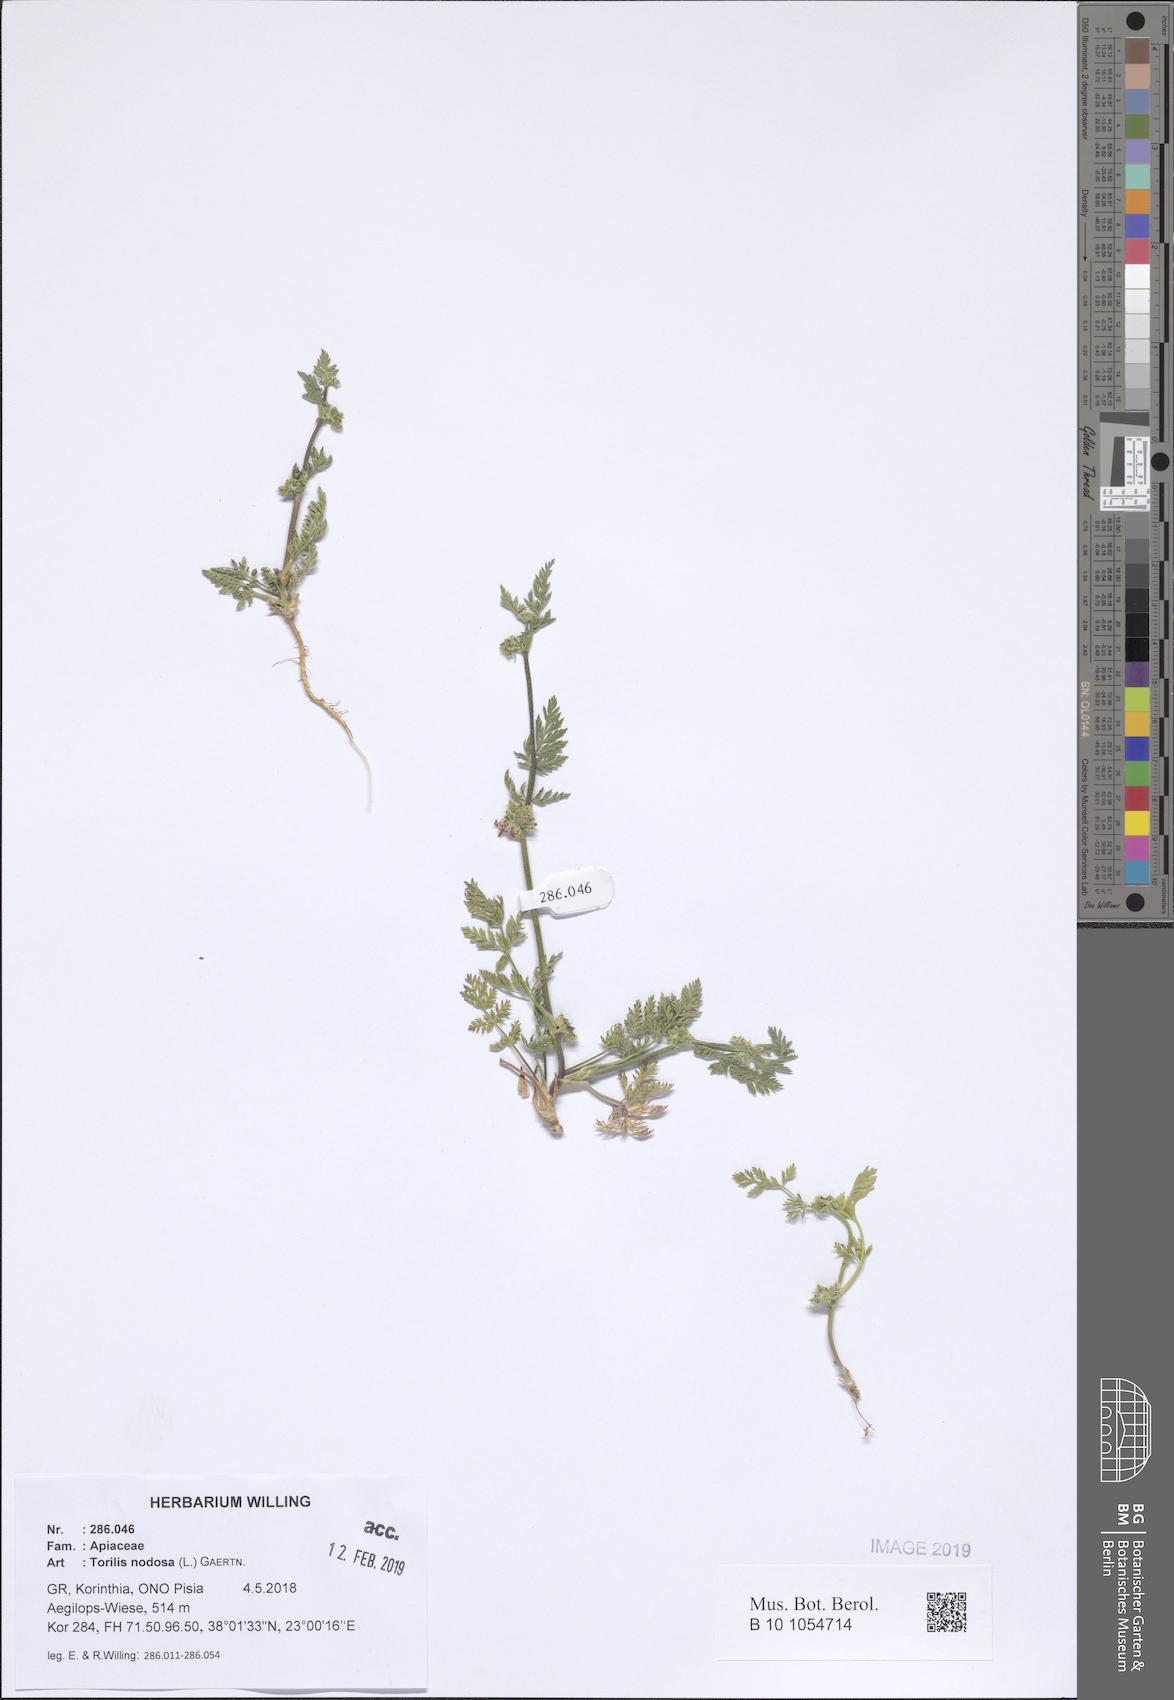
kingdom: Plantae
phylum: Tracheophyta
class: Magnoliopsida
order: Apiales
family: Apiaceae
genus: Torilis
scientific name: Torilis nodosa
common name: Knotted hedge-parsley
